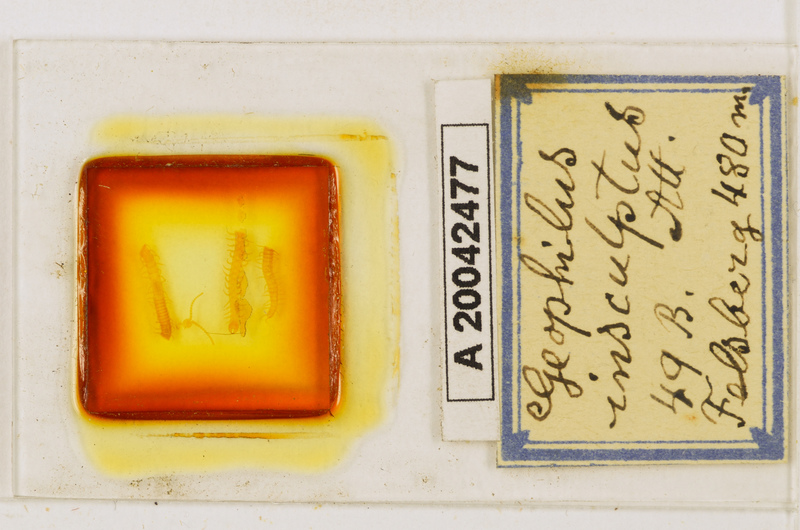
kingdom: Animalia
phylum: Arthropoda
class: Chilopoda
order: Geophilomorpha
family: Geophilidae
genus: Geophilus
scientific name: Geophilus insculptus
